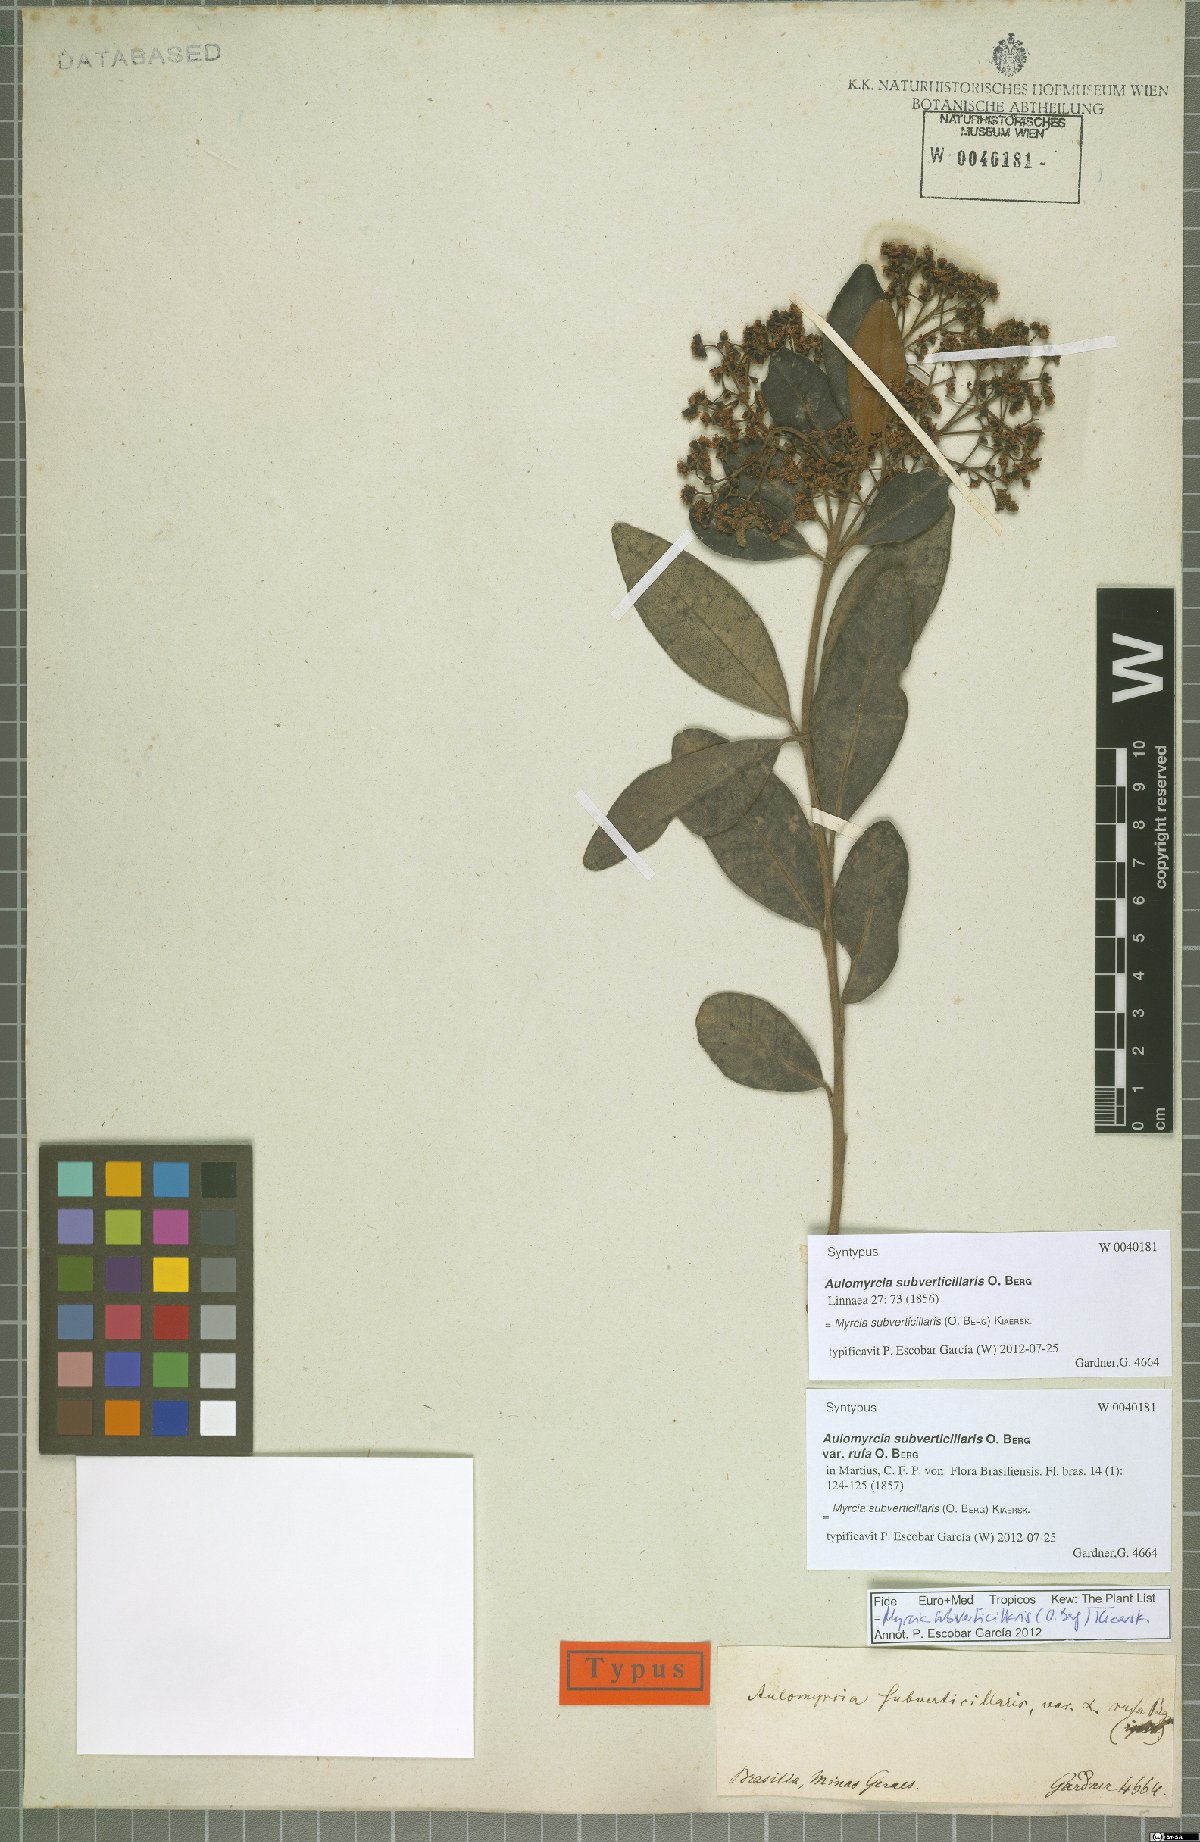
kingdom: Plantae
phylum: Tracheophyta
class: Magnoliopsida
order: Myrtales
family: Myrtaceae
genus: Myrcia
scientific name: Myrcia subverticillaris
